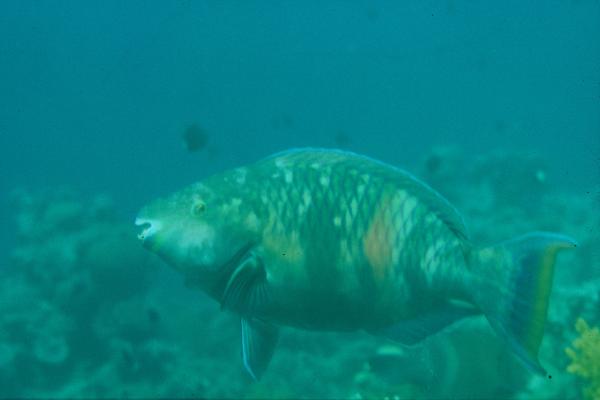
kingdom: Animalia
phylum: Chordata
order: Perciformes
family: Scaridae
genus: Scarus
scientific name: Scarus fuscopurpureus
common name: Purple-brown parrotfish
